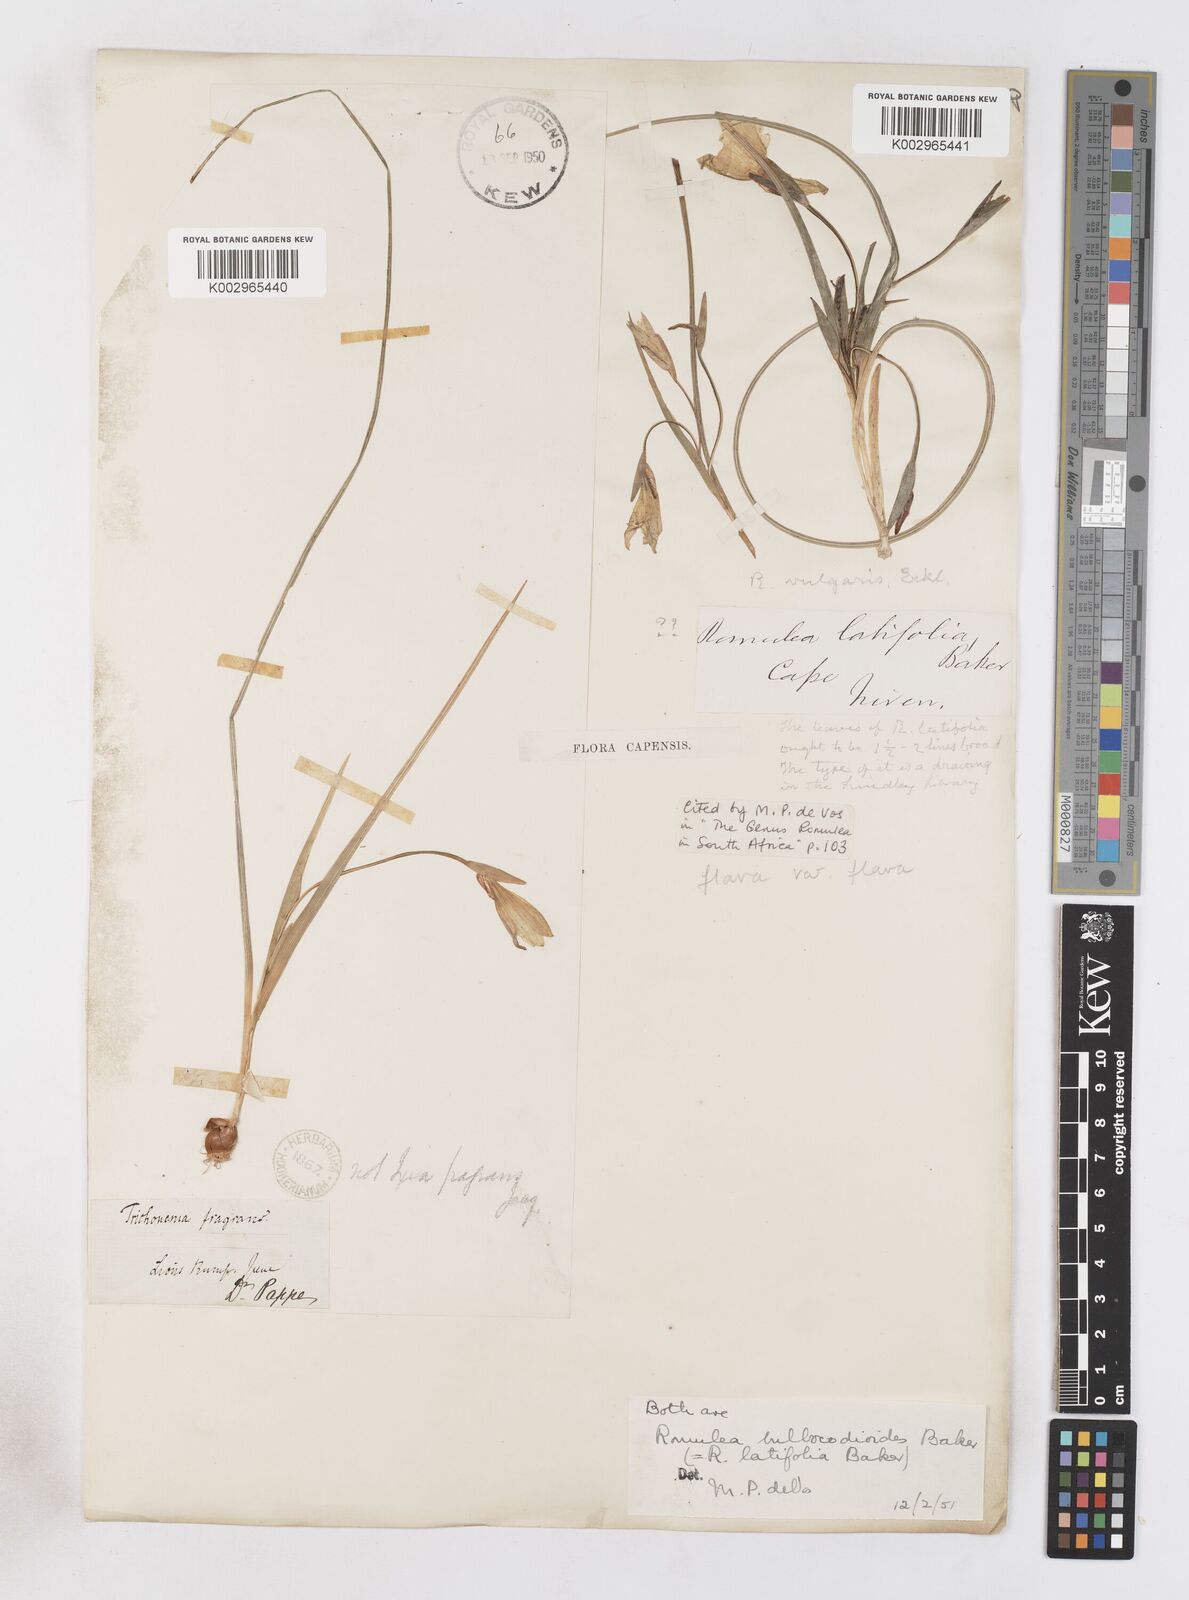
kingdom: Plantae
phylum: Tracheophyta
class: Liliopsida
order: Asparagales
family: Iridaceae
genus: Romulea
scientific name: Romulea flava
